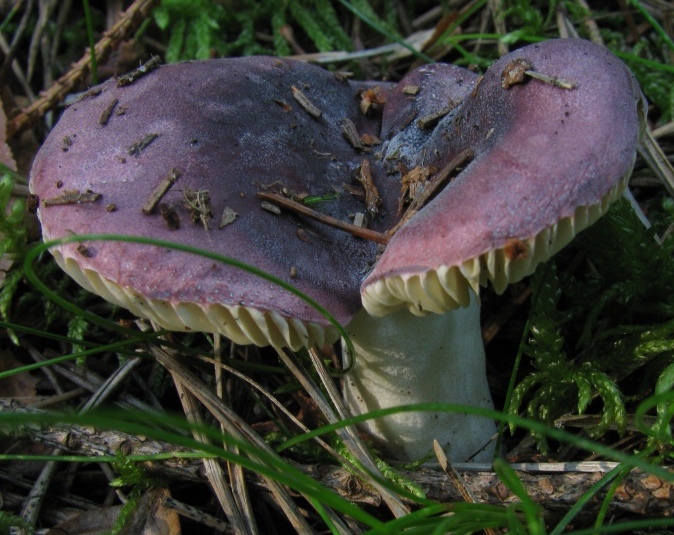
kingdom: Fungi
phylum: Basidiomycota
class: Agaricomycetes
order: Russulales
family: Russulaceae
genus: Russula
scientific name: Russula turci
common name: jod-skørhat
